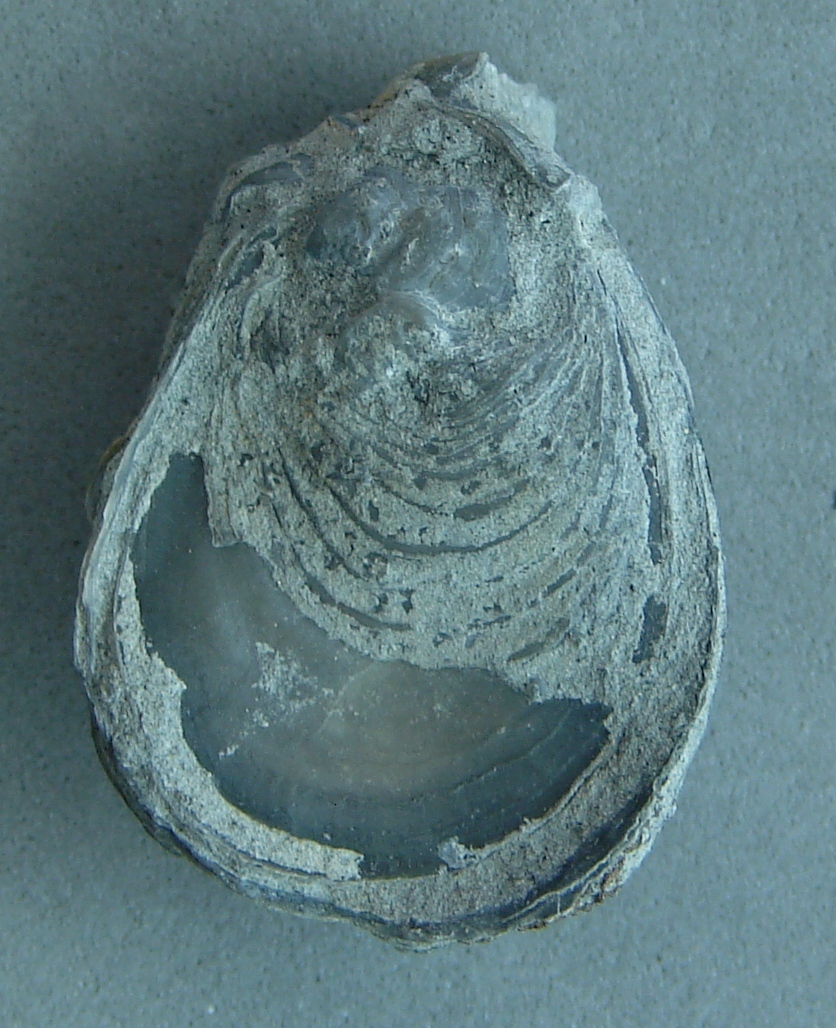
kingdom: Animalia
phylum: Mollusca
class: Bivalvia
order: Ostreida
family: Flemingostreidae
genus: Liostrea
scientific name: Liostrea hisingeri
